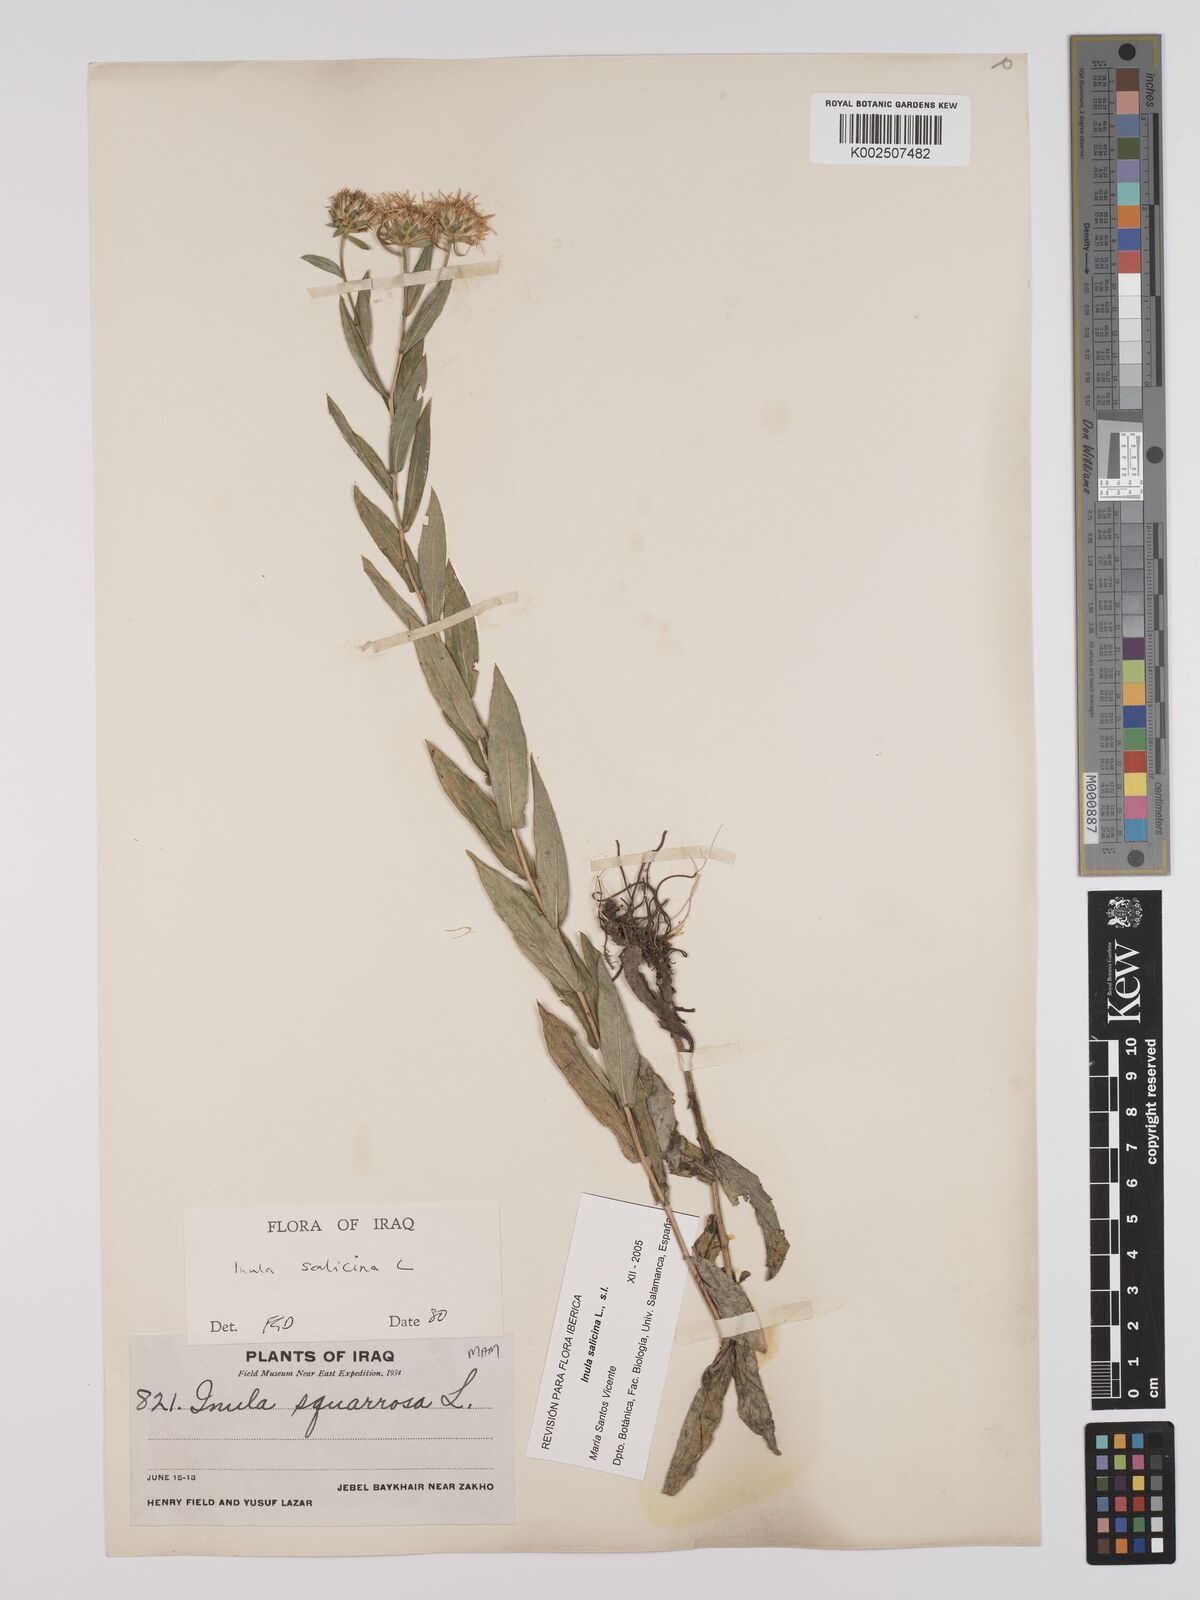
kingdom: Plantae
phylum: Tracheophyta
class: Magnoliopsida
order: Asterales
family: Asteraceae
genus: Pentanema
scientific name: Pentanema salicinum
